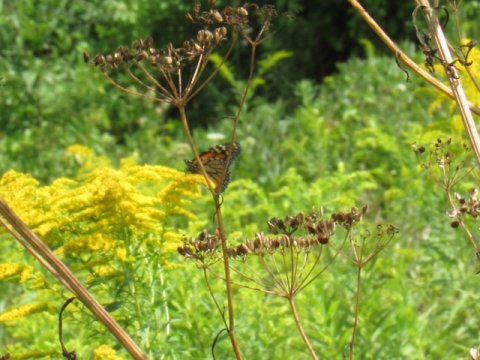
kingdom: Animalia
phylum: Arthropoda
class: Insecta
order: Lepidoptera
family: Nymphalidae
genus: Danaus
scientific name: Danaus plexippus
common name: Monarch
